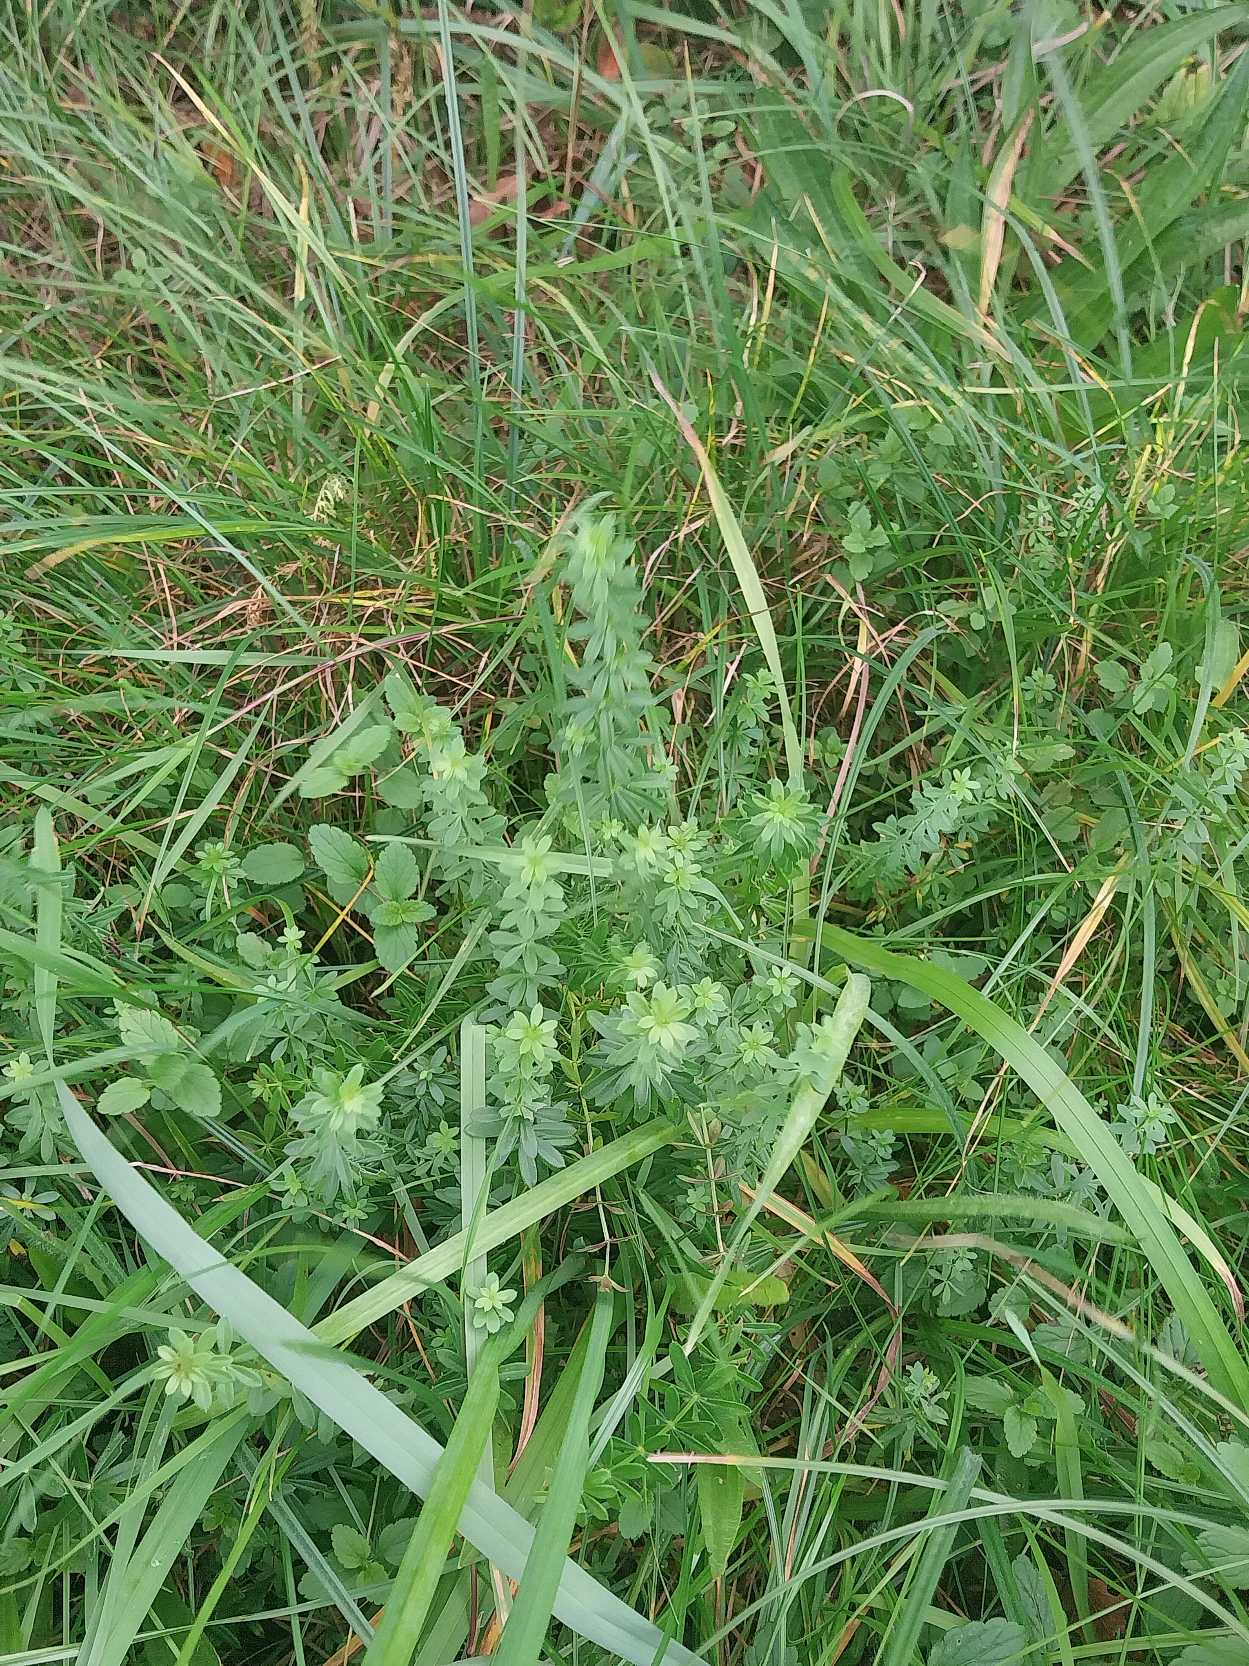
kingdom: Plantae
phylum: Tracheophyta
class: Magnoliopsida
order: Gentianales
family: Rubiaceae
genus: Galium
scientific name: Galium mollugo
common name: Hvid snerre
